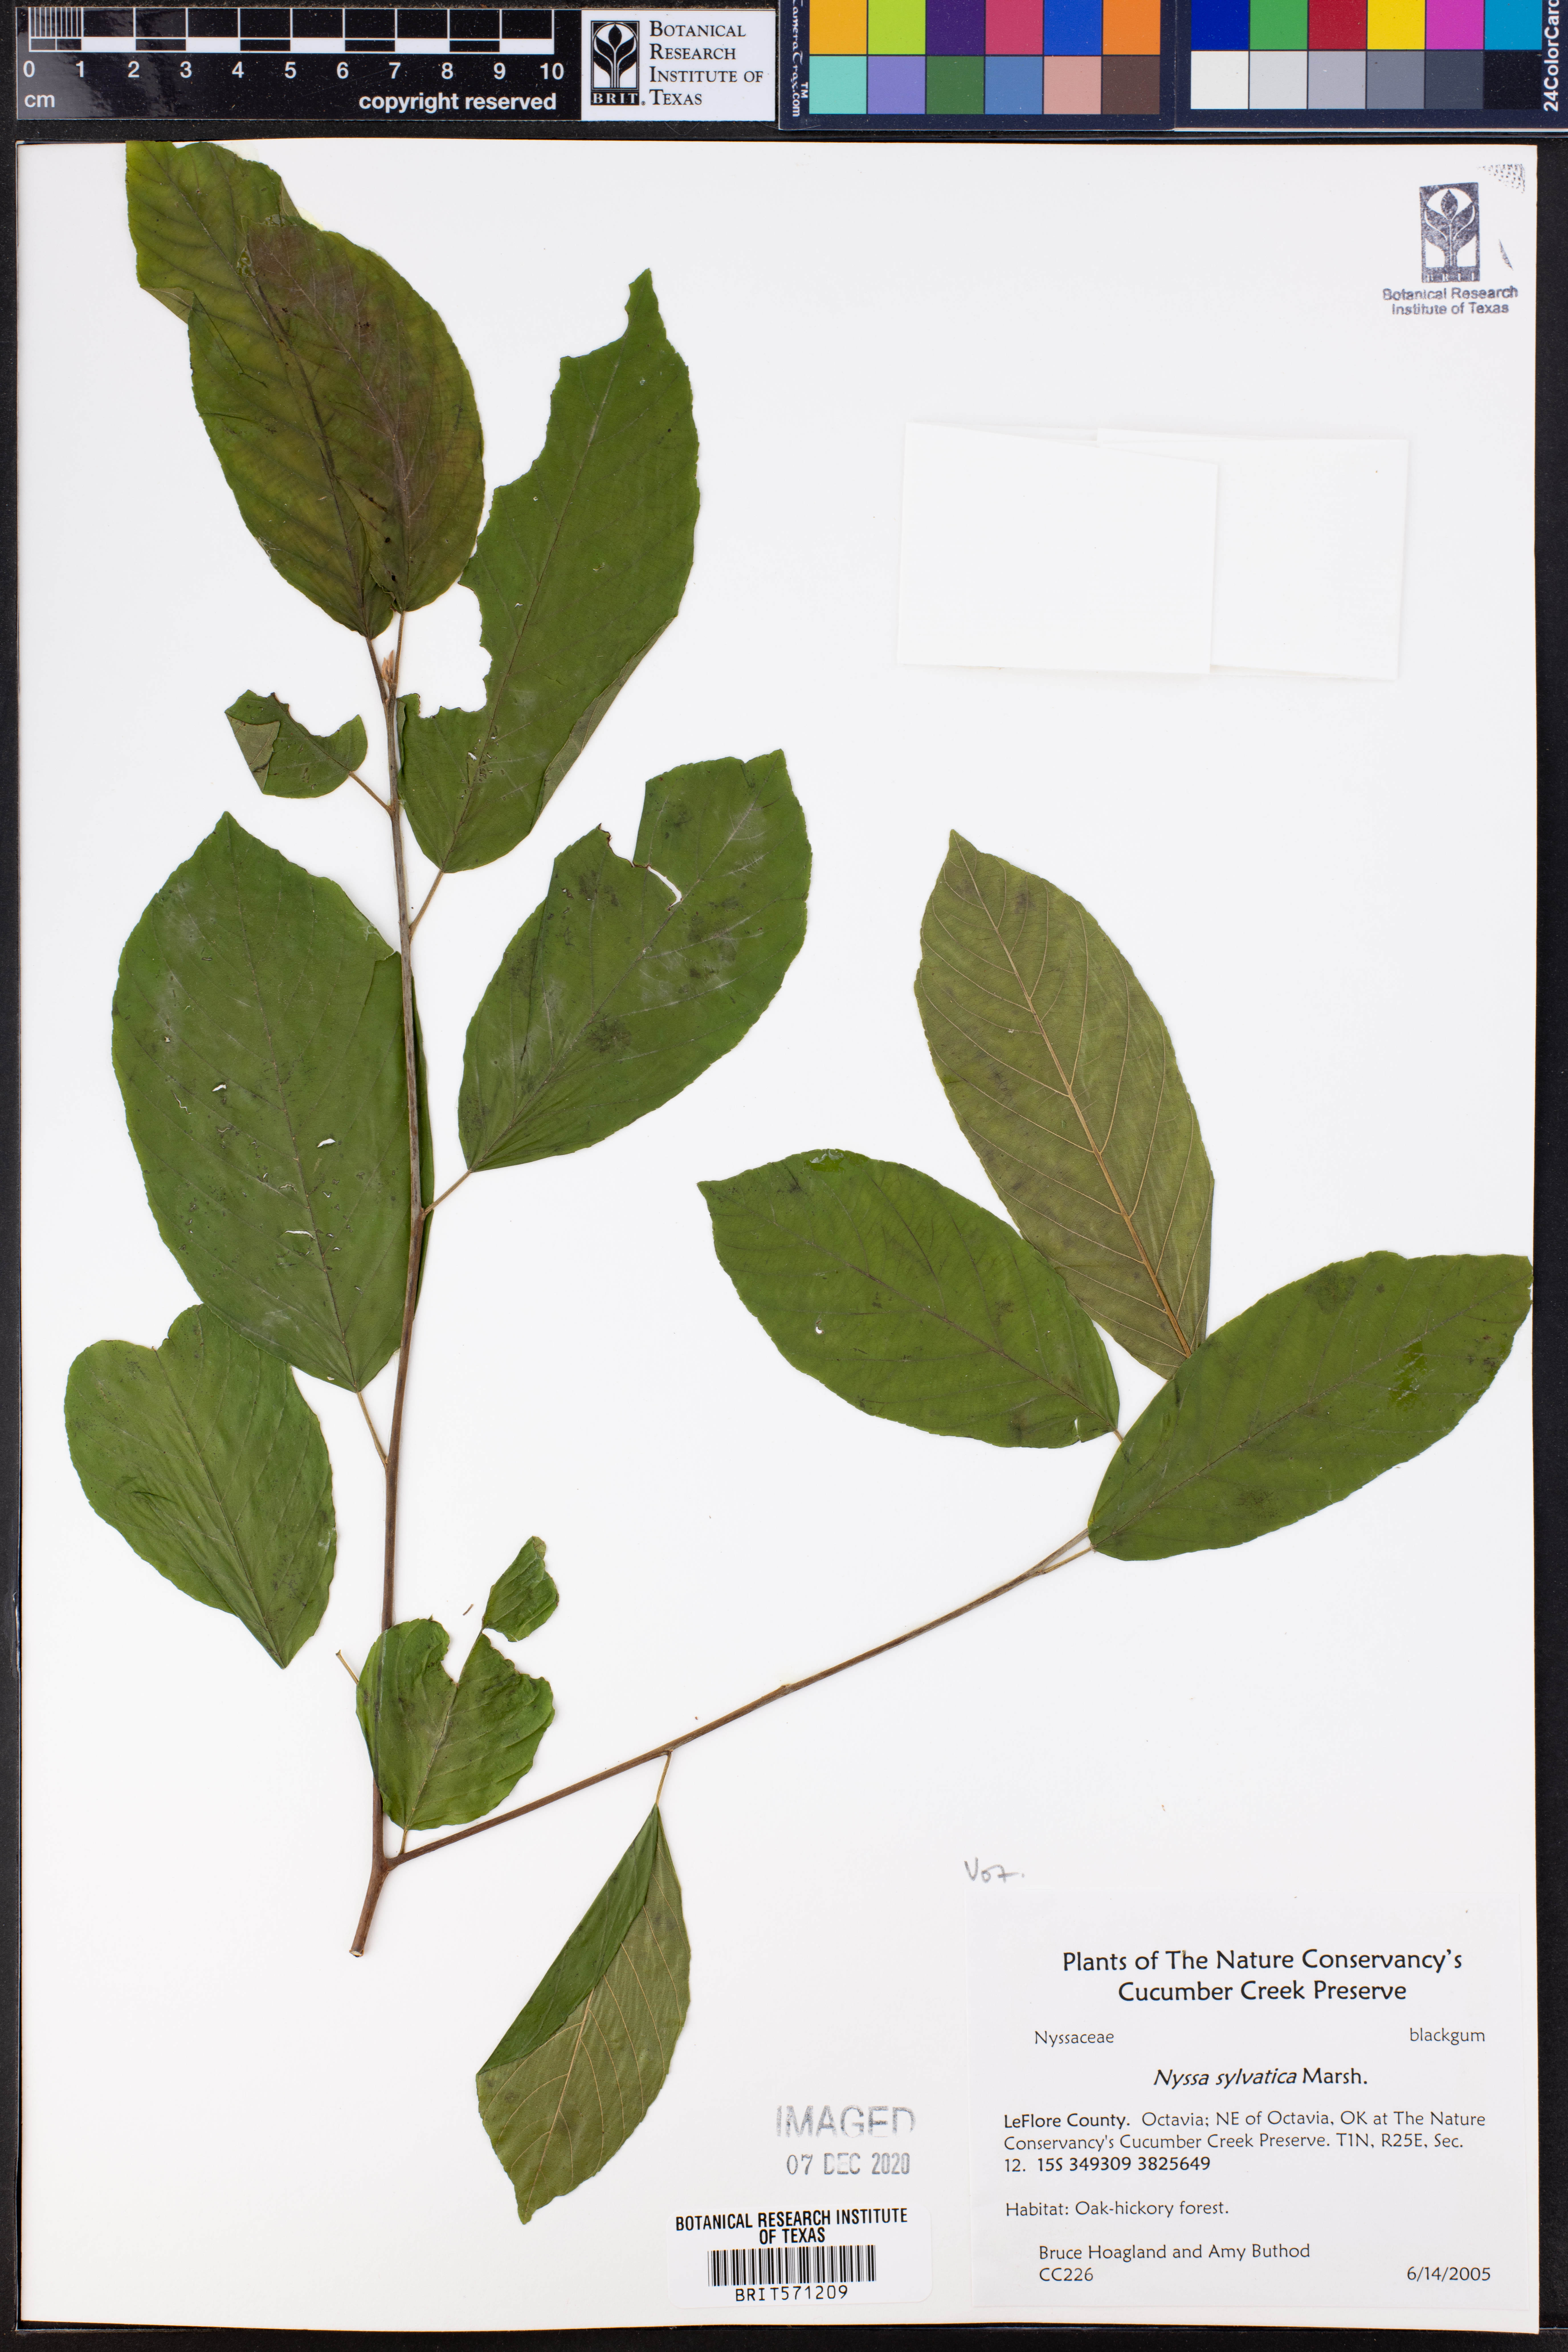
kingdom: Plantae
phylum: Tracheophyta
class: Magnoliopsida
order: Cornales
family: Nyssaceae
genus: Nyssa
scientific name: Nyssa sylvatica
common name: Black tupelo
